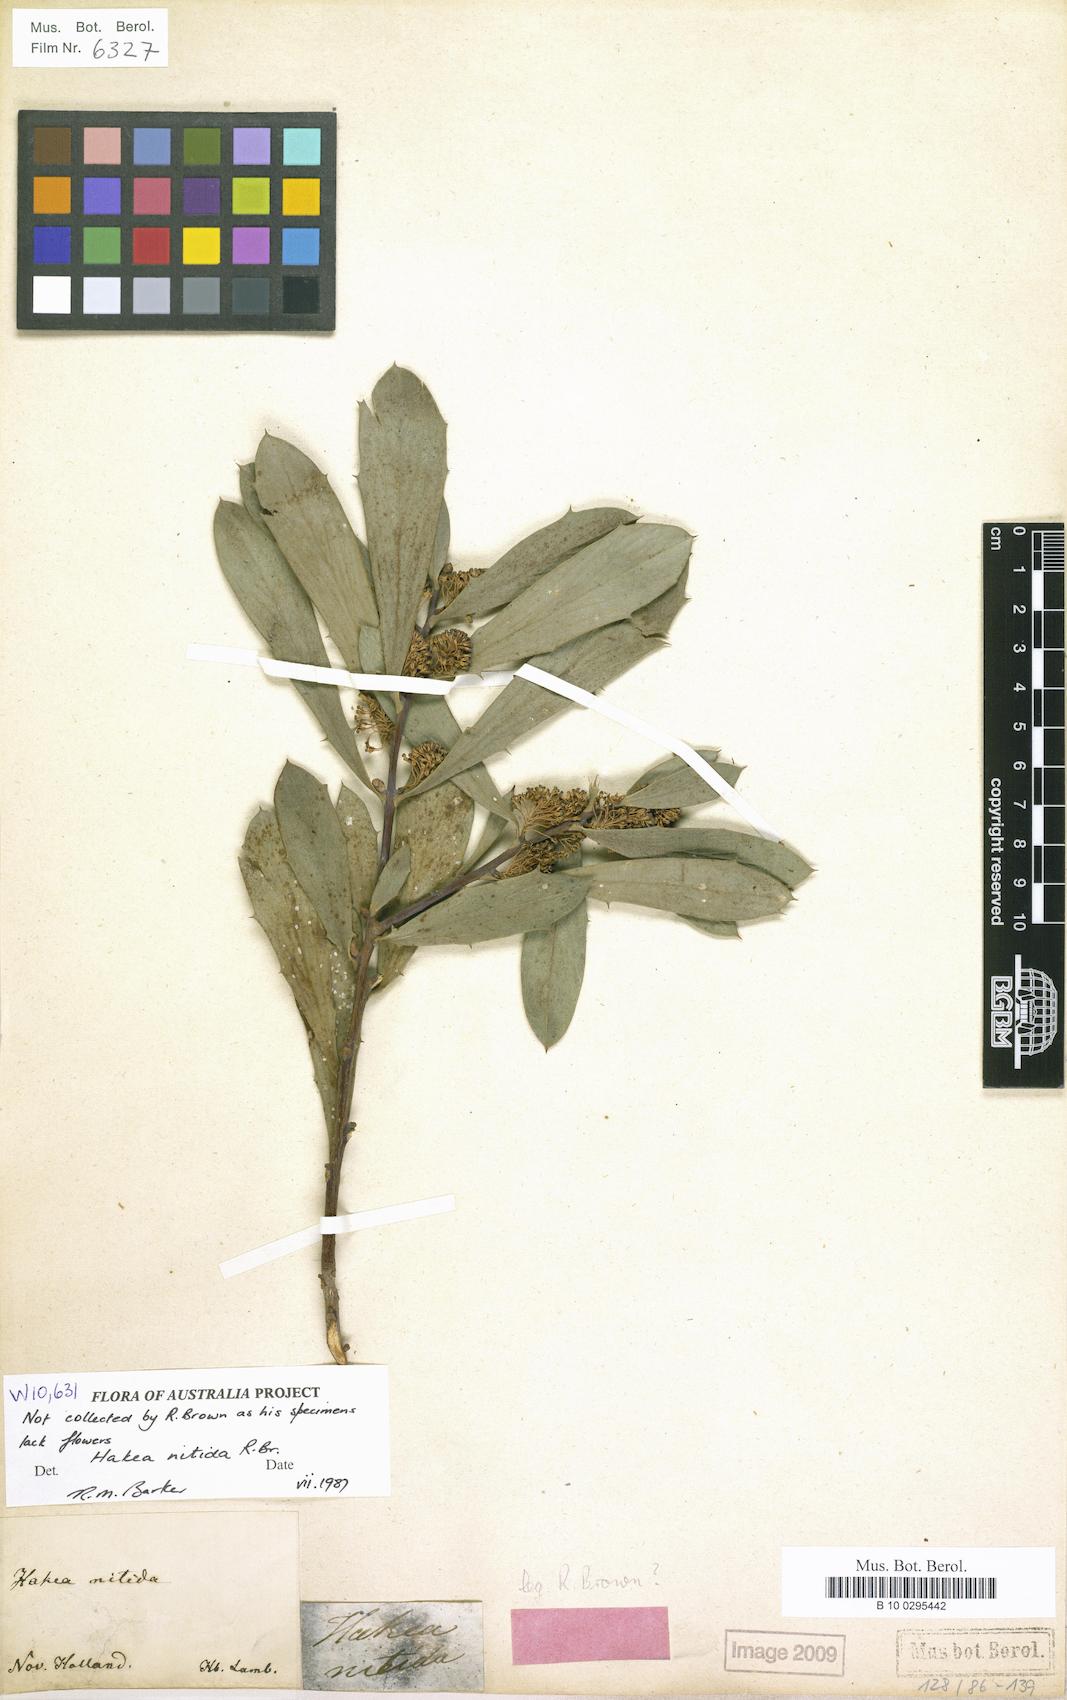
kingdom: Plantae
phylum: Tracheophyta
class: Magnoliopsida
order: Proteales
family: Proteaceae
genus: Hakea
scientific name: Hakea nitida
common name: Frog hakea
